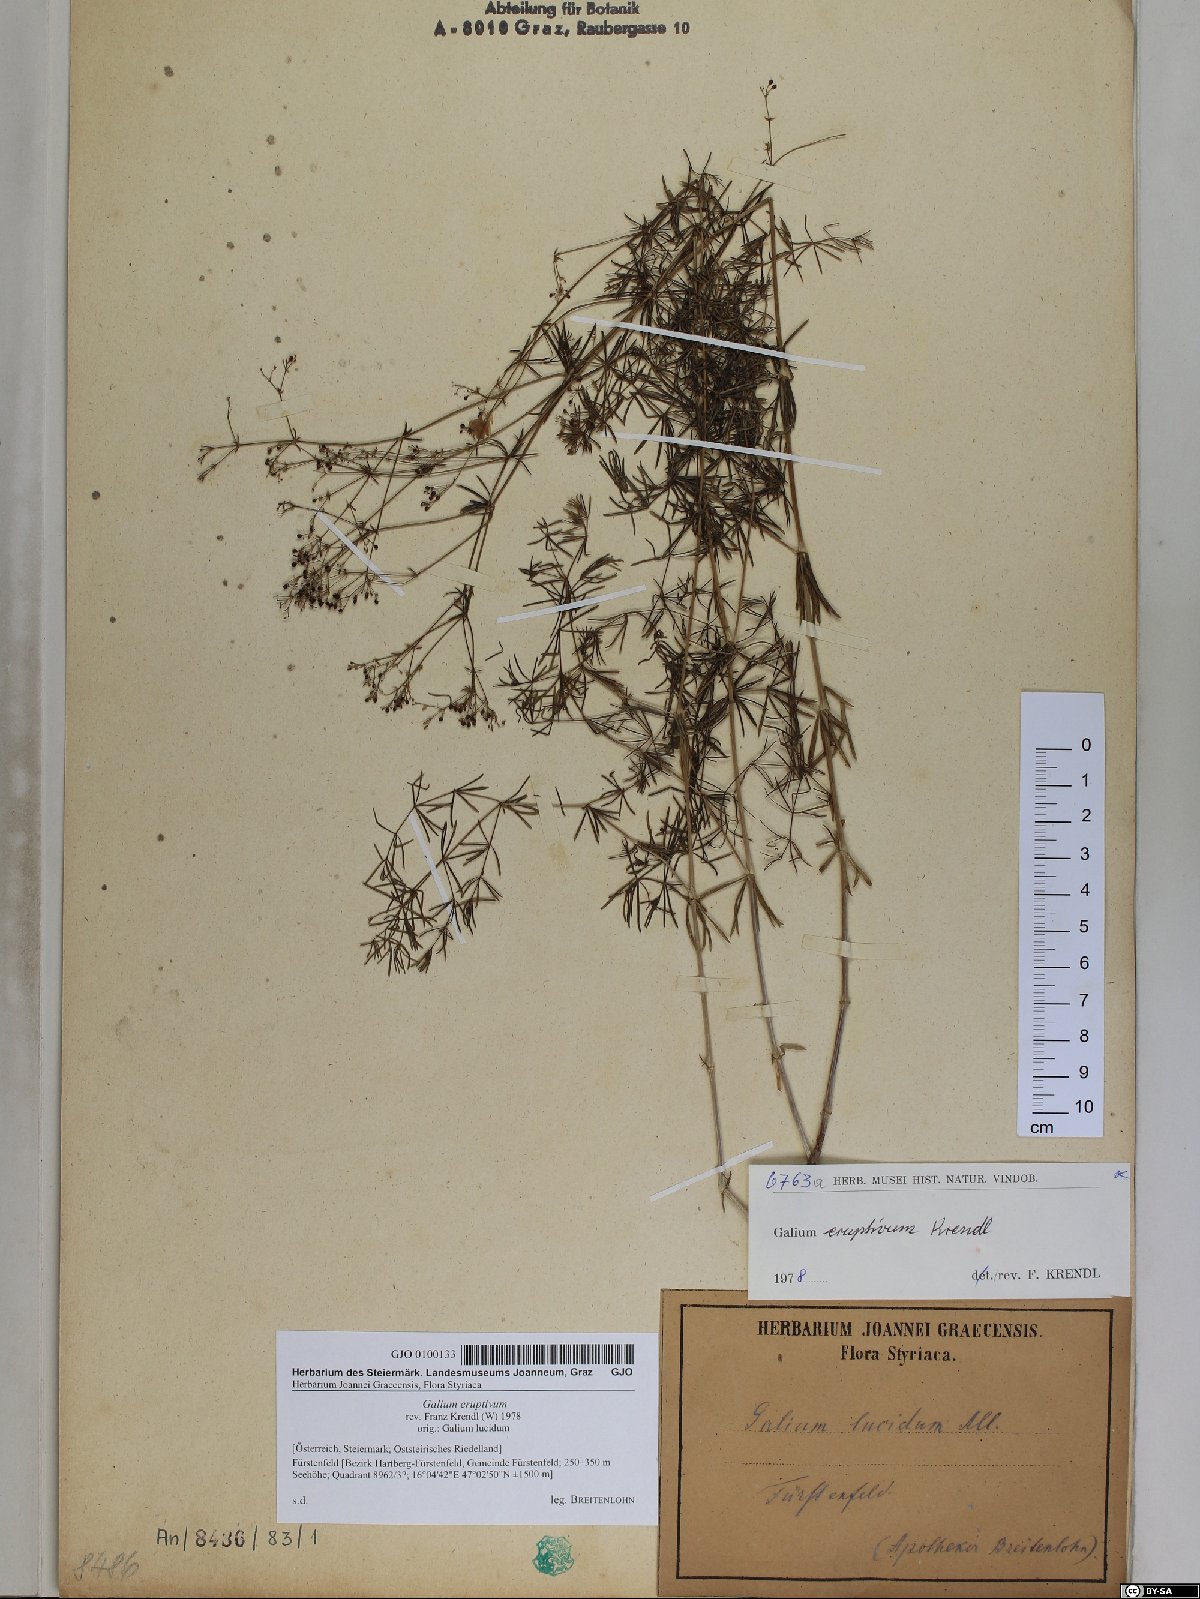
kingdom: Plantae
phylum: Tracheophyta
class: Magnoliopsida
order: Gentianales
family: Rubiaceae
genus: Galium
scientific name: Galium eruptivum
